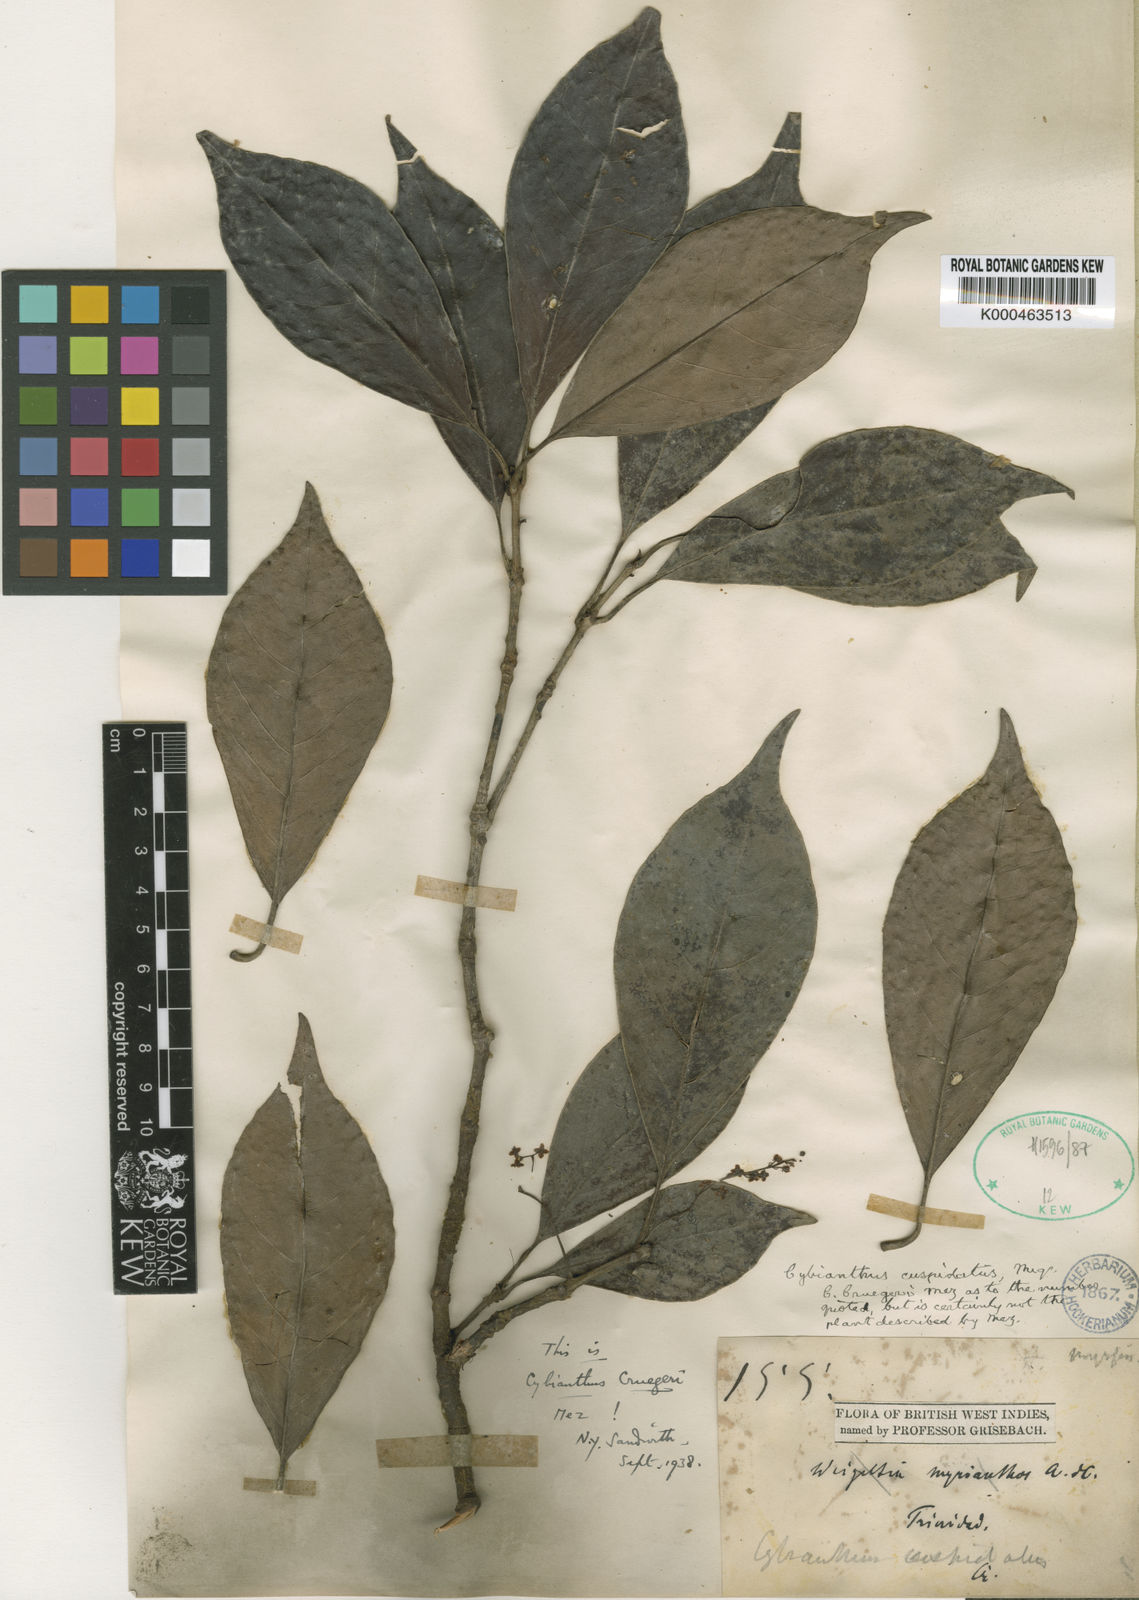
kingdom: Plantae
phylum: Tracheophyta
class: Magnoliopsida
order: Ericales
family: Primulaceae
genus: Cybianthus
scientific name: Cybianthus antillanus
